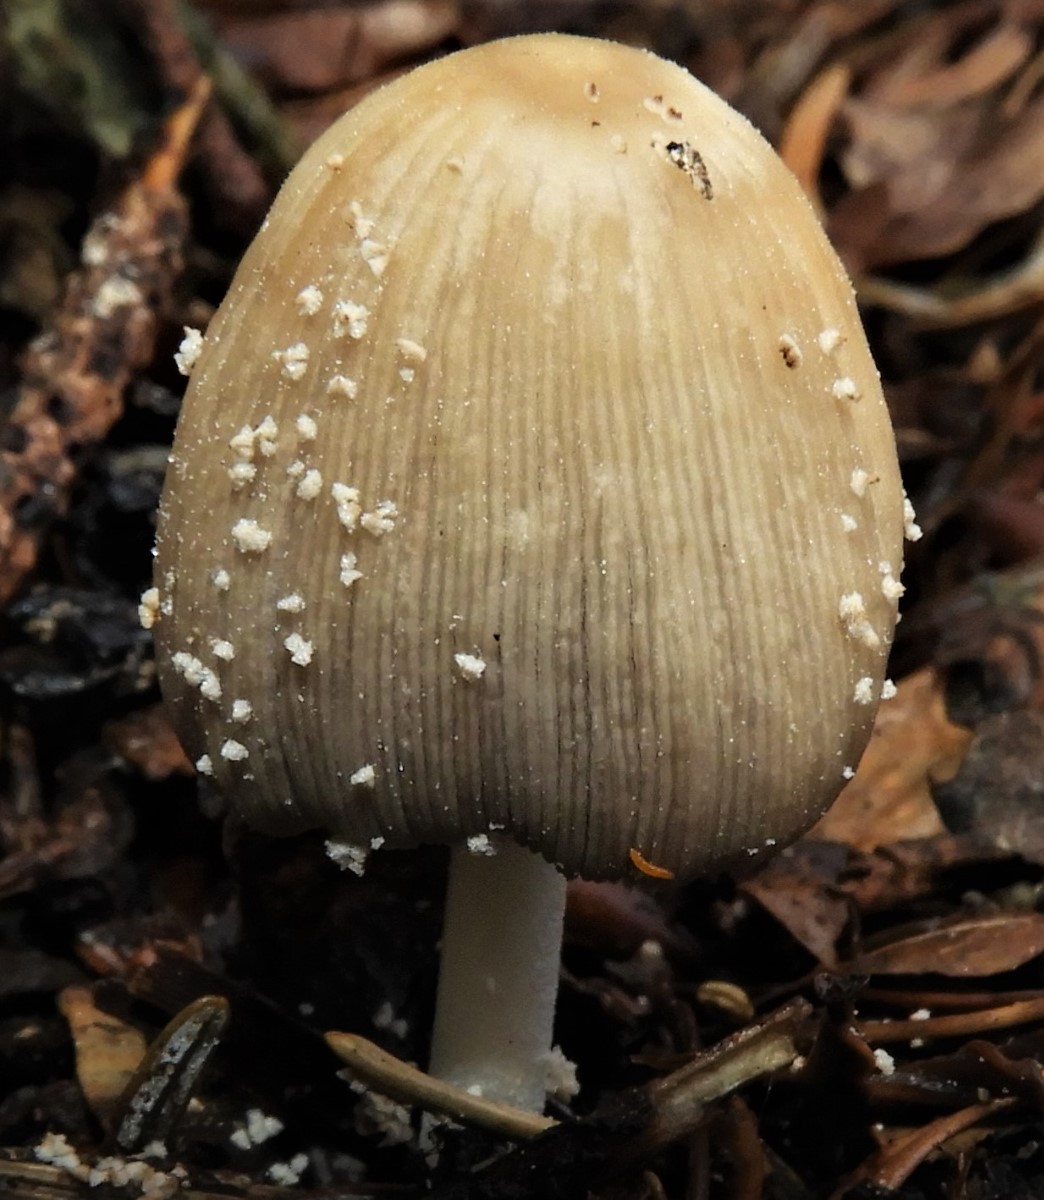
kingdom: Fungi
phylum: Basidiomycota
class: Agaricomycetes
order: Agaricales
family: Psathyrellaceae
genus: Coprinellus
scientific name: Coprinellus
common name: blækhat
